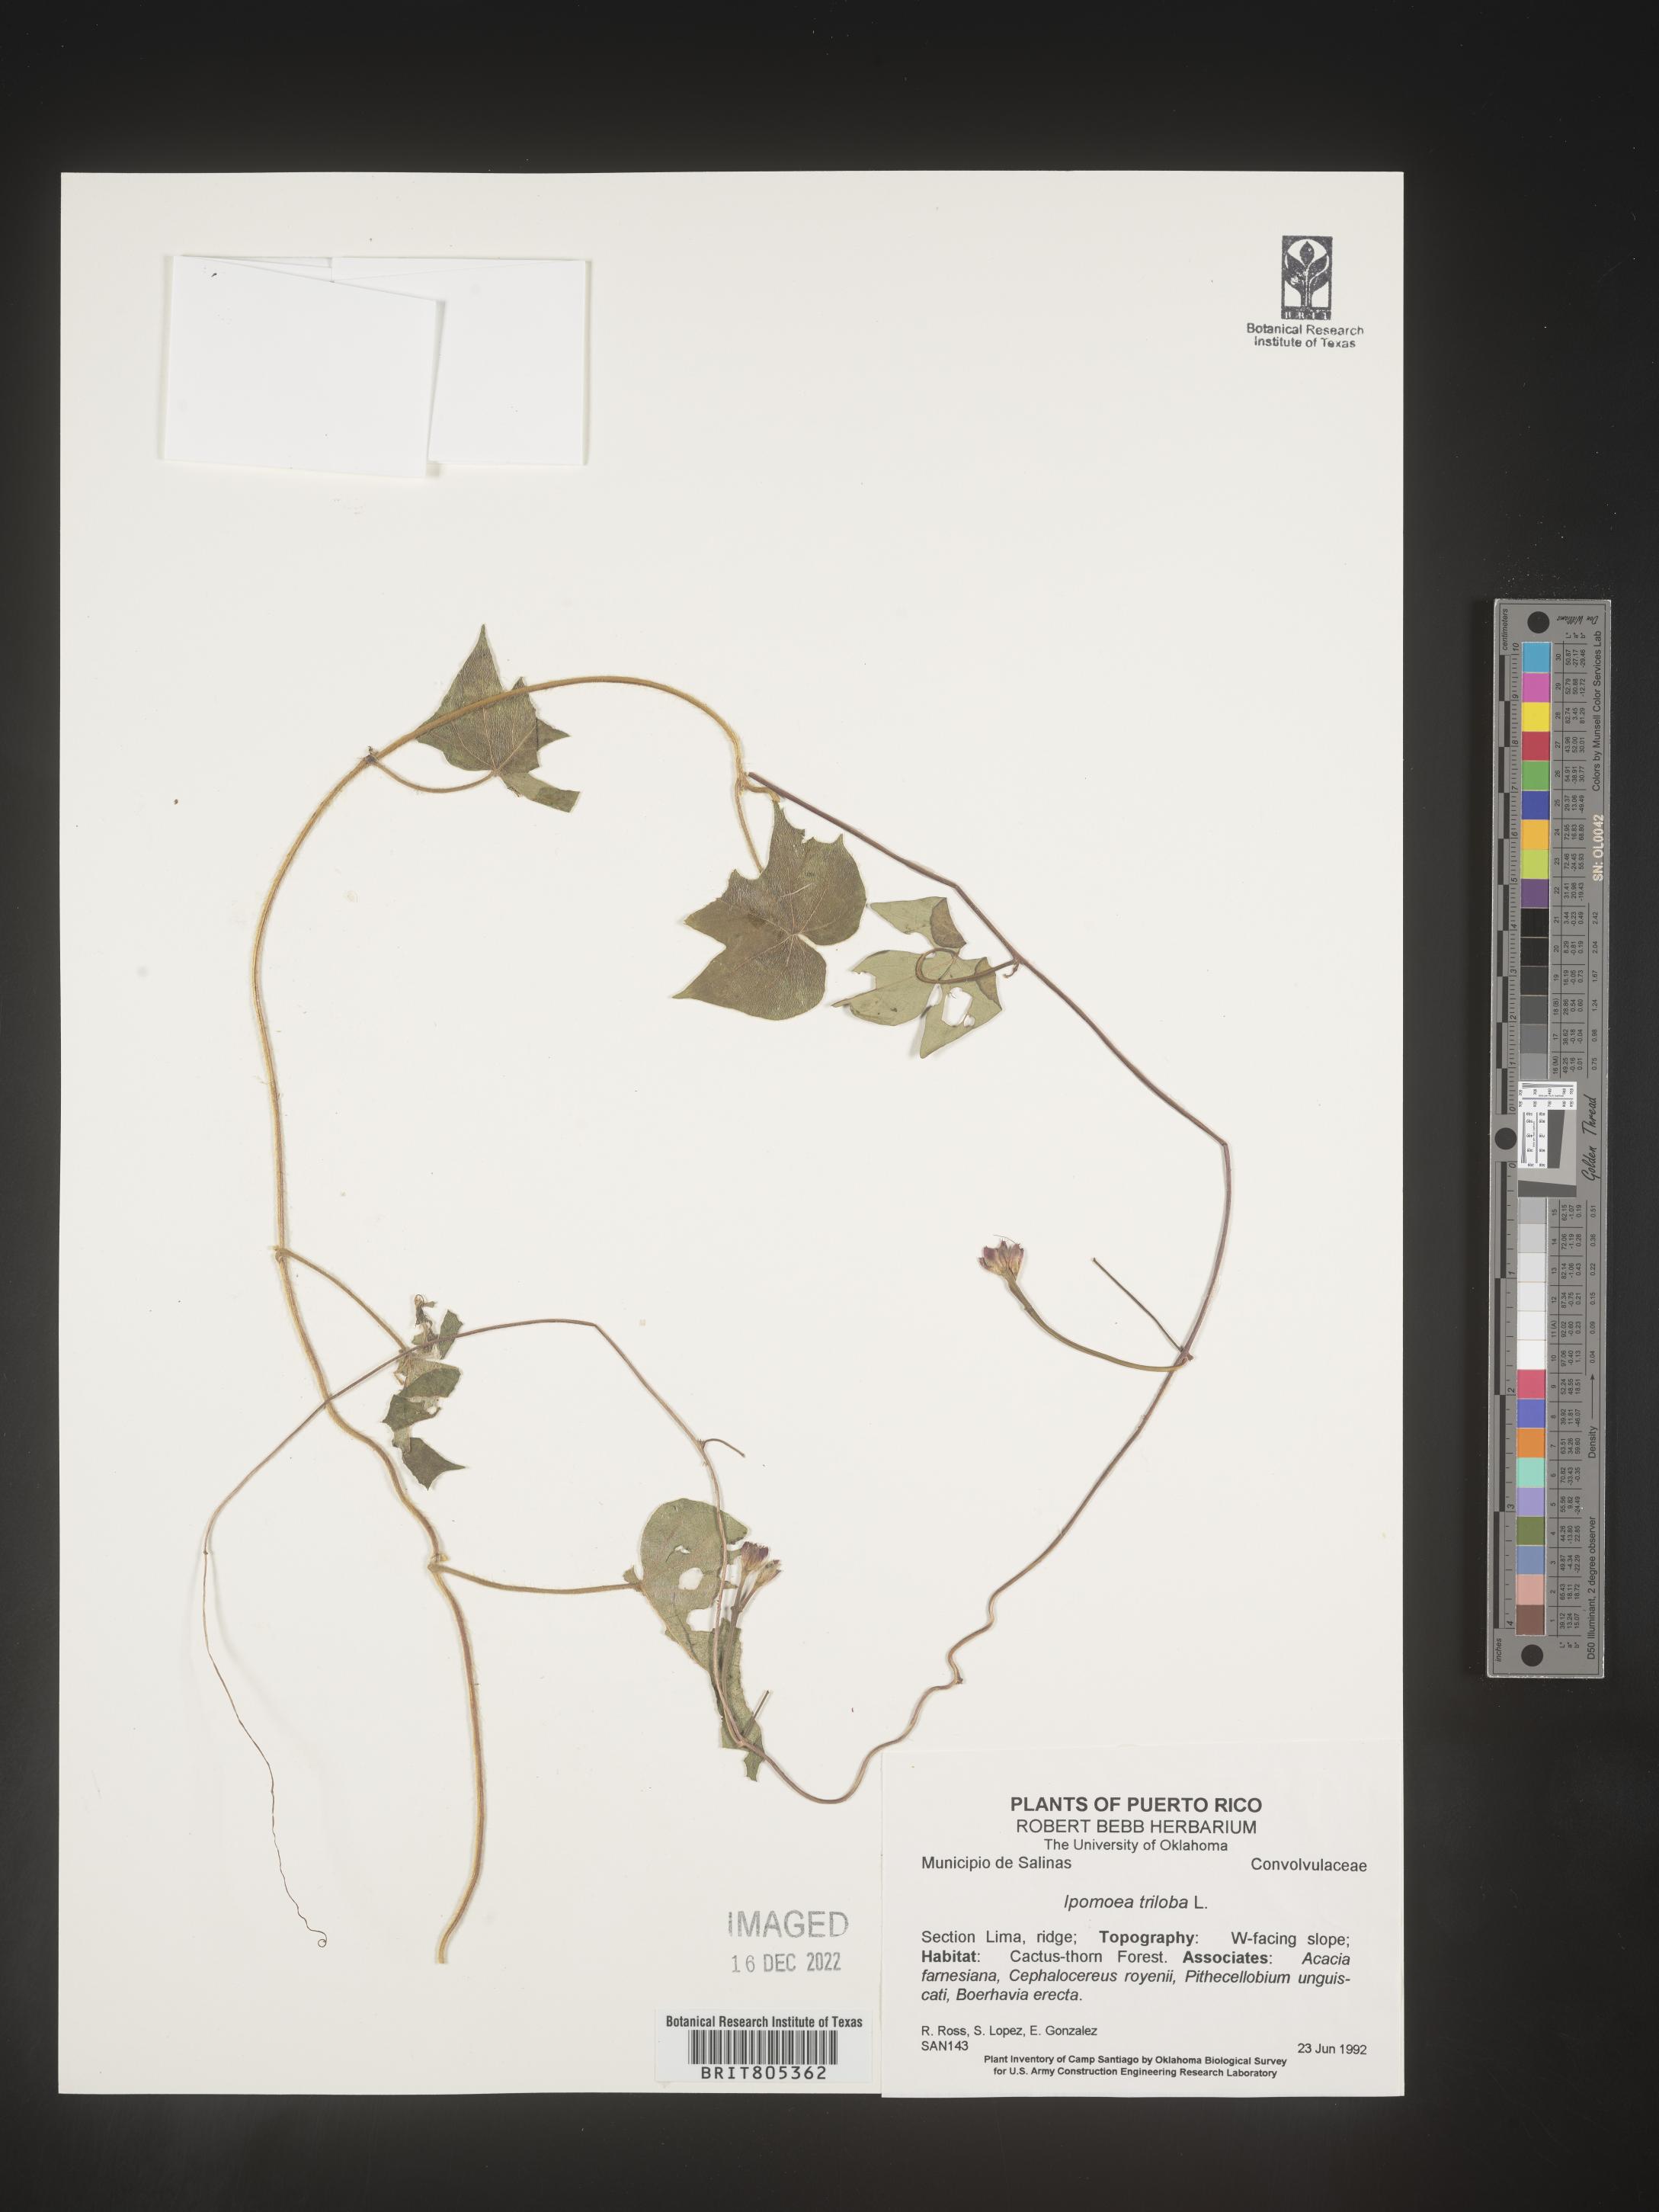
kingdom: Plantae
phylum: Tracheophyta
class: Magnoliopsida
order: Solanales
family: Convolvulaceae
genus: Ipomoea
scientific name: Ipomoea
